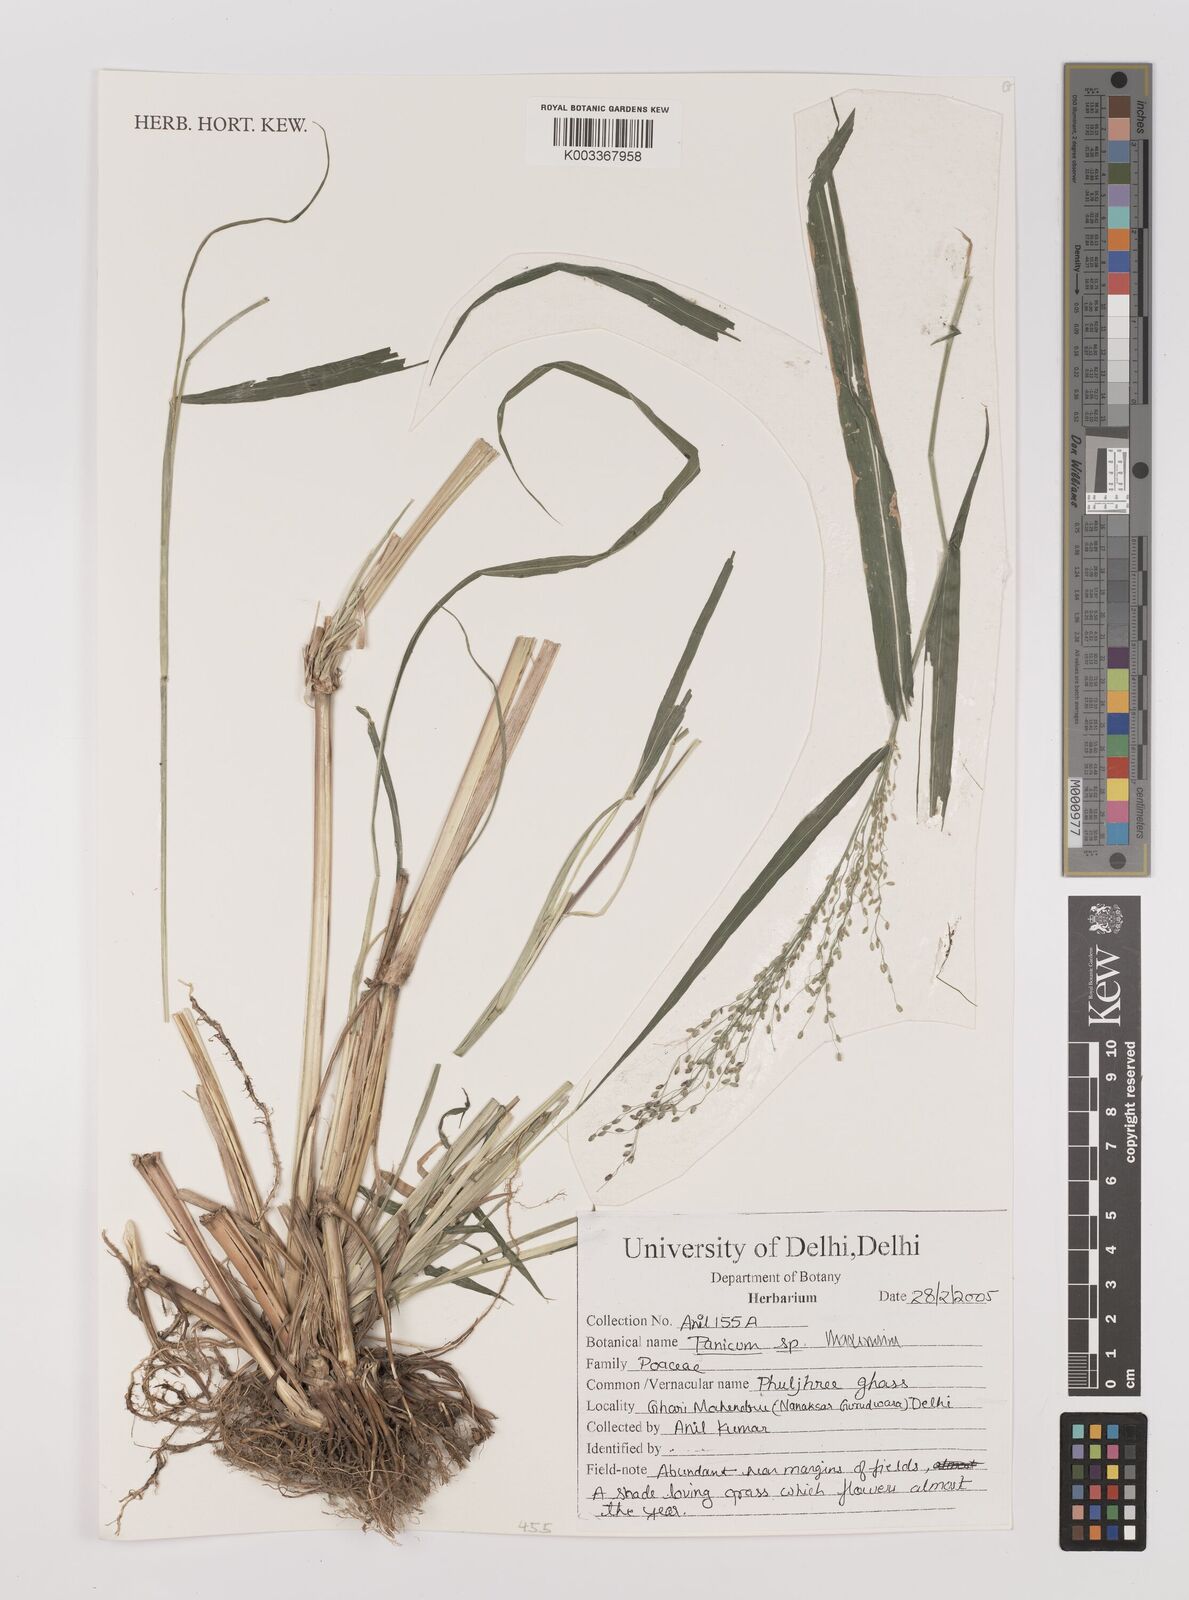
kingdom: Plantae
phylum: Tracheophyta
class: Liliopsida
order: Poales
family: Poaceae
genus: Megathyrsus
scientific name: Megathyrsus maximus
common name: Guineagrass
